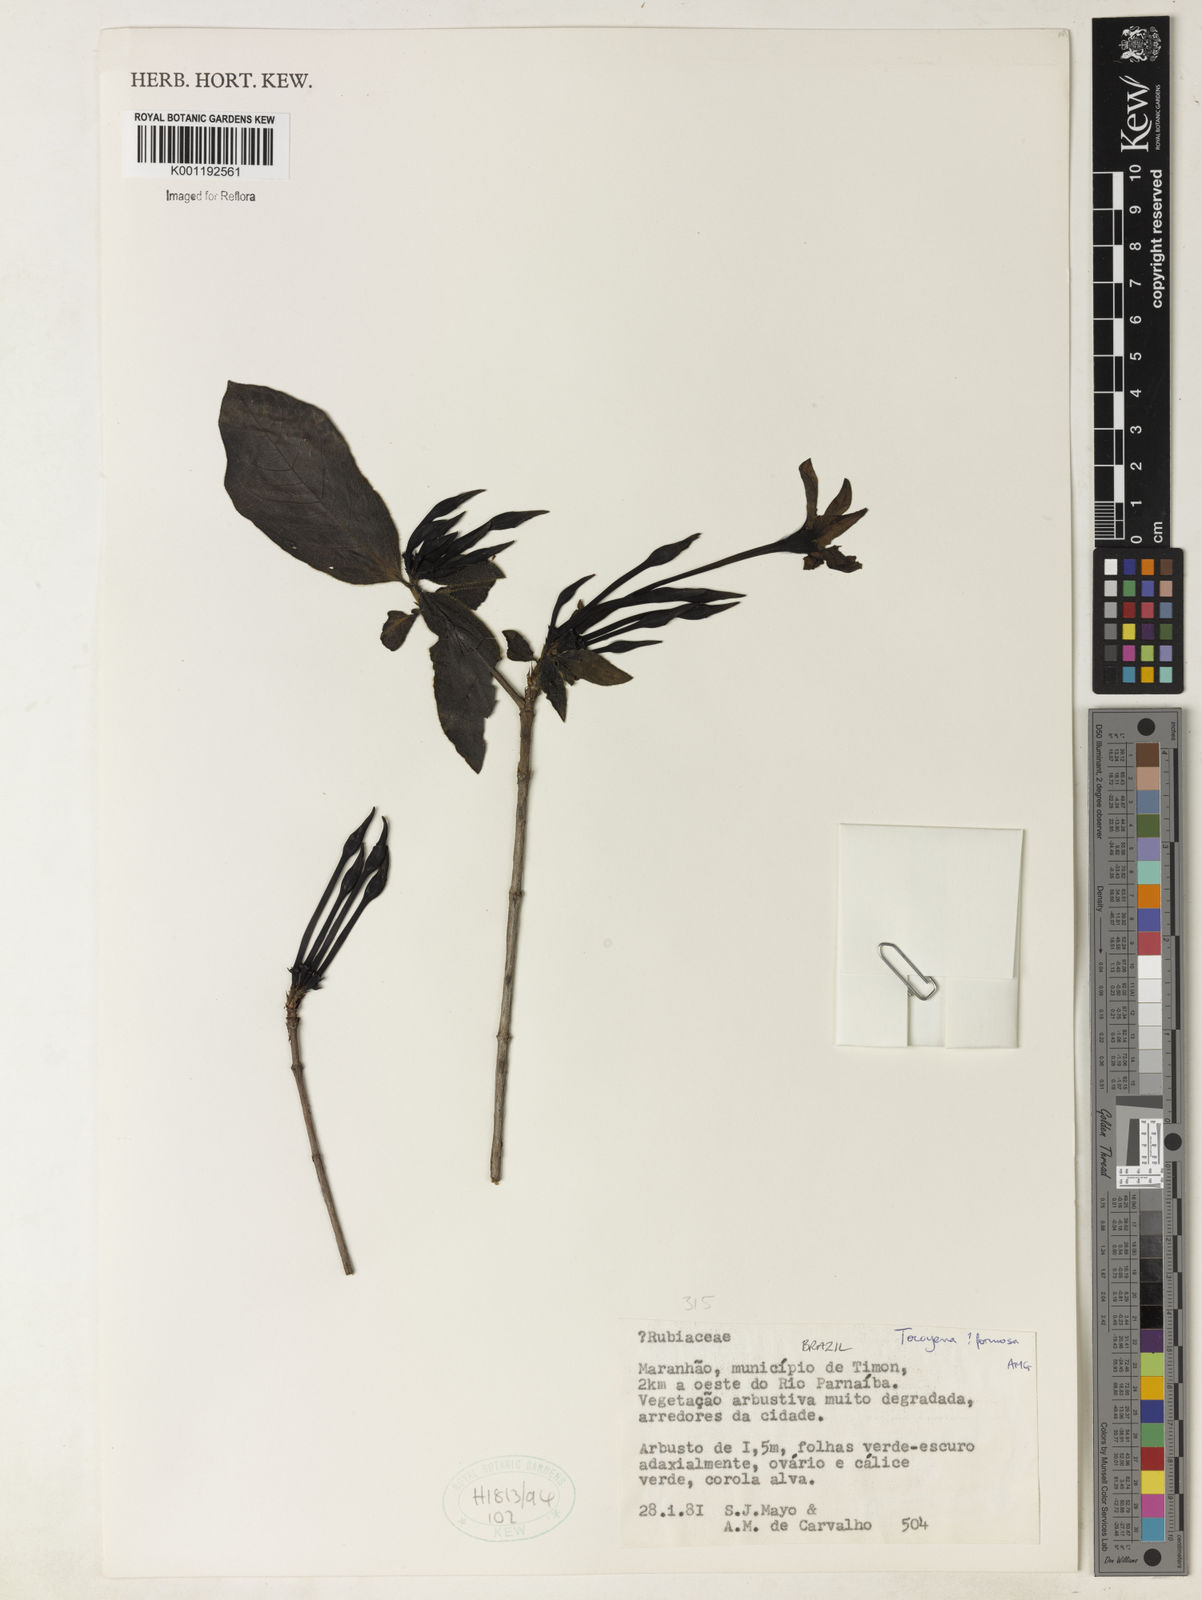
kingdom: Plantae
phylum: Tracheophyta
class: Magnoliopsida
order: Gentianales
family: Rubiaceae
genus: Tocoyena
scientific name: Tocoyena
